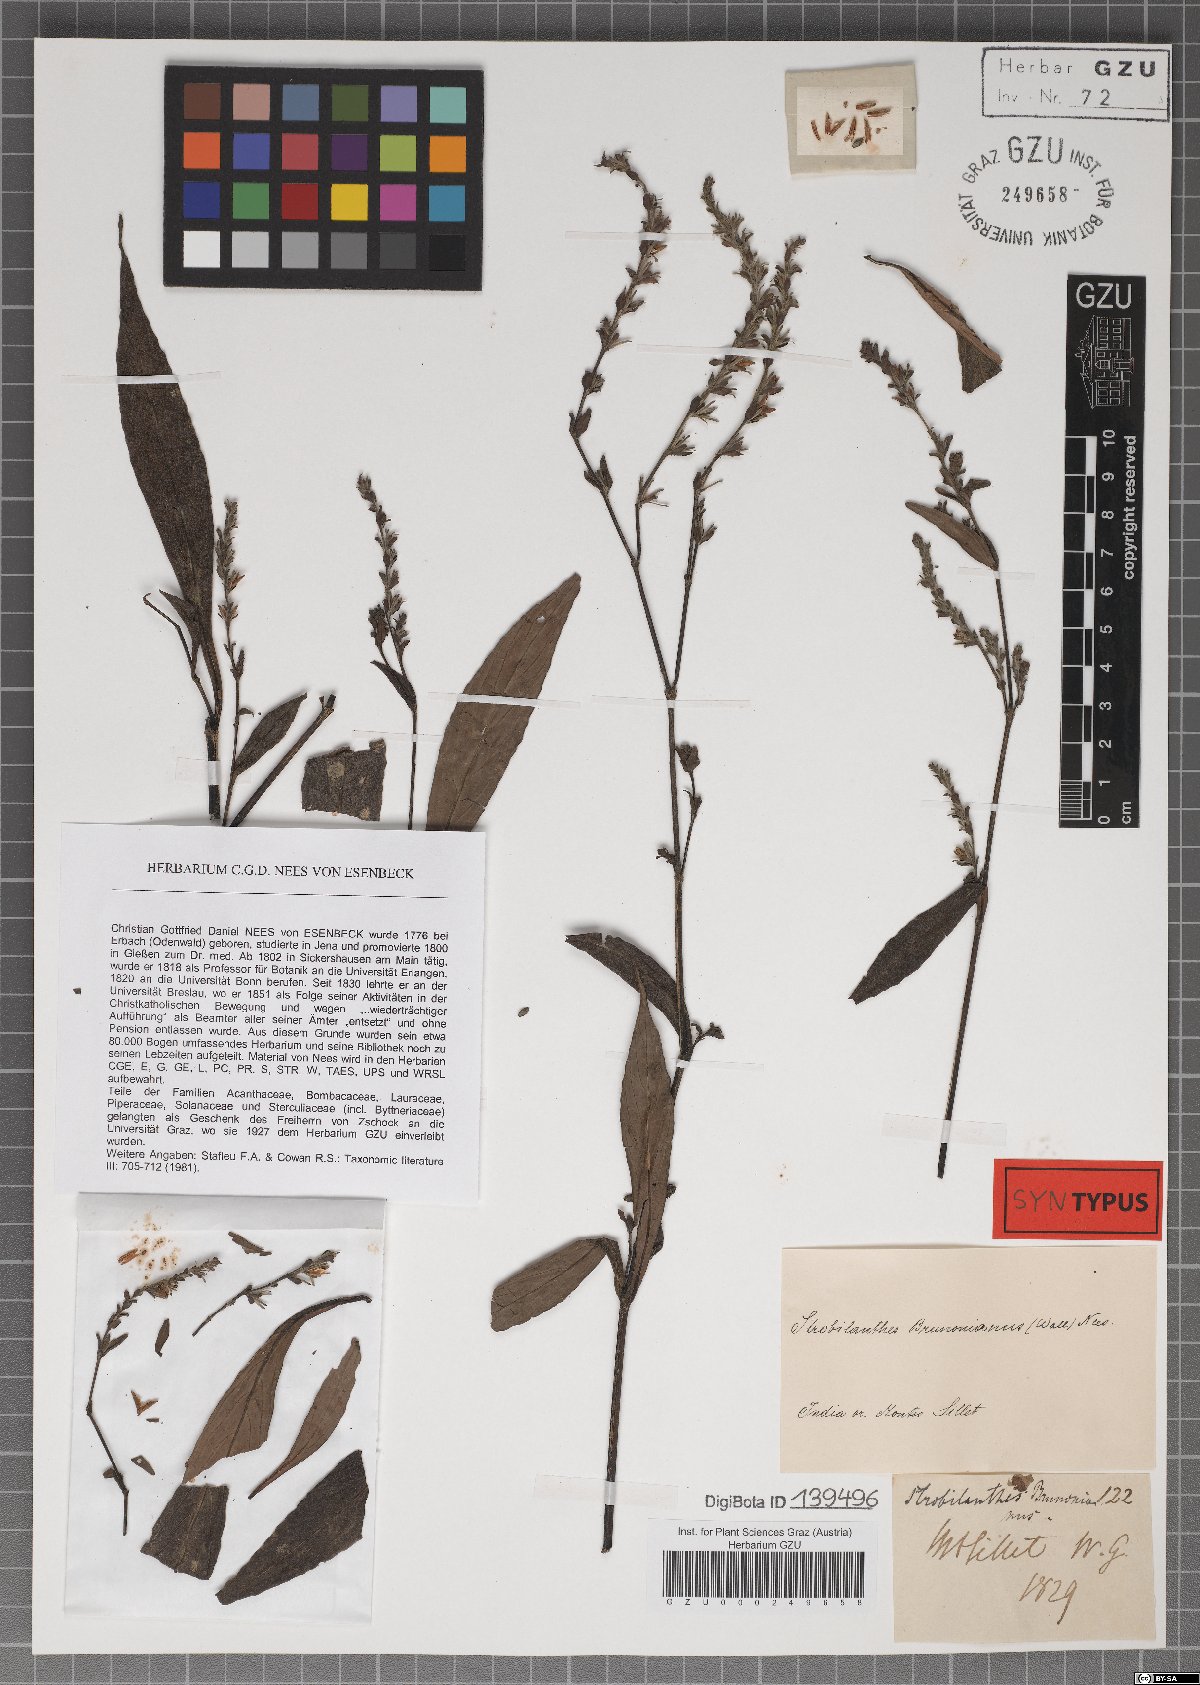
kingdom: Plantae
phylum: Tracheophyta
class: Magnoliopsida
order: Lamiales
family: Acanthaceae
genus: Strobilanthes
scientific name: Strobilanthes brunoniana
